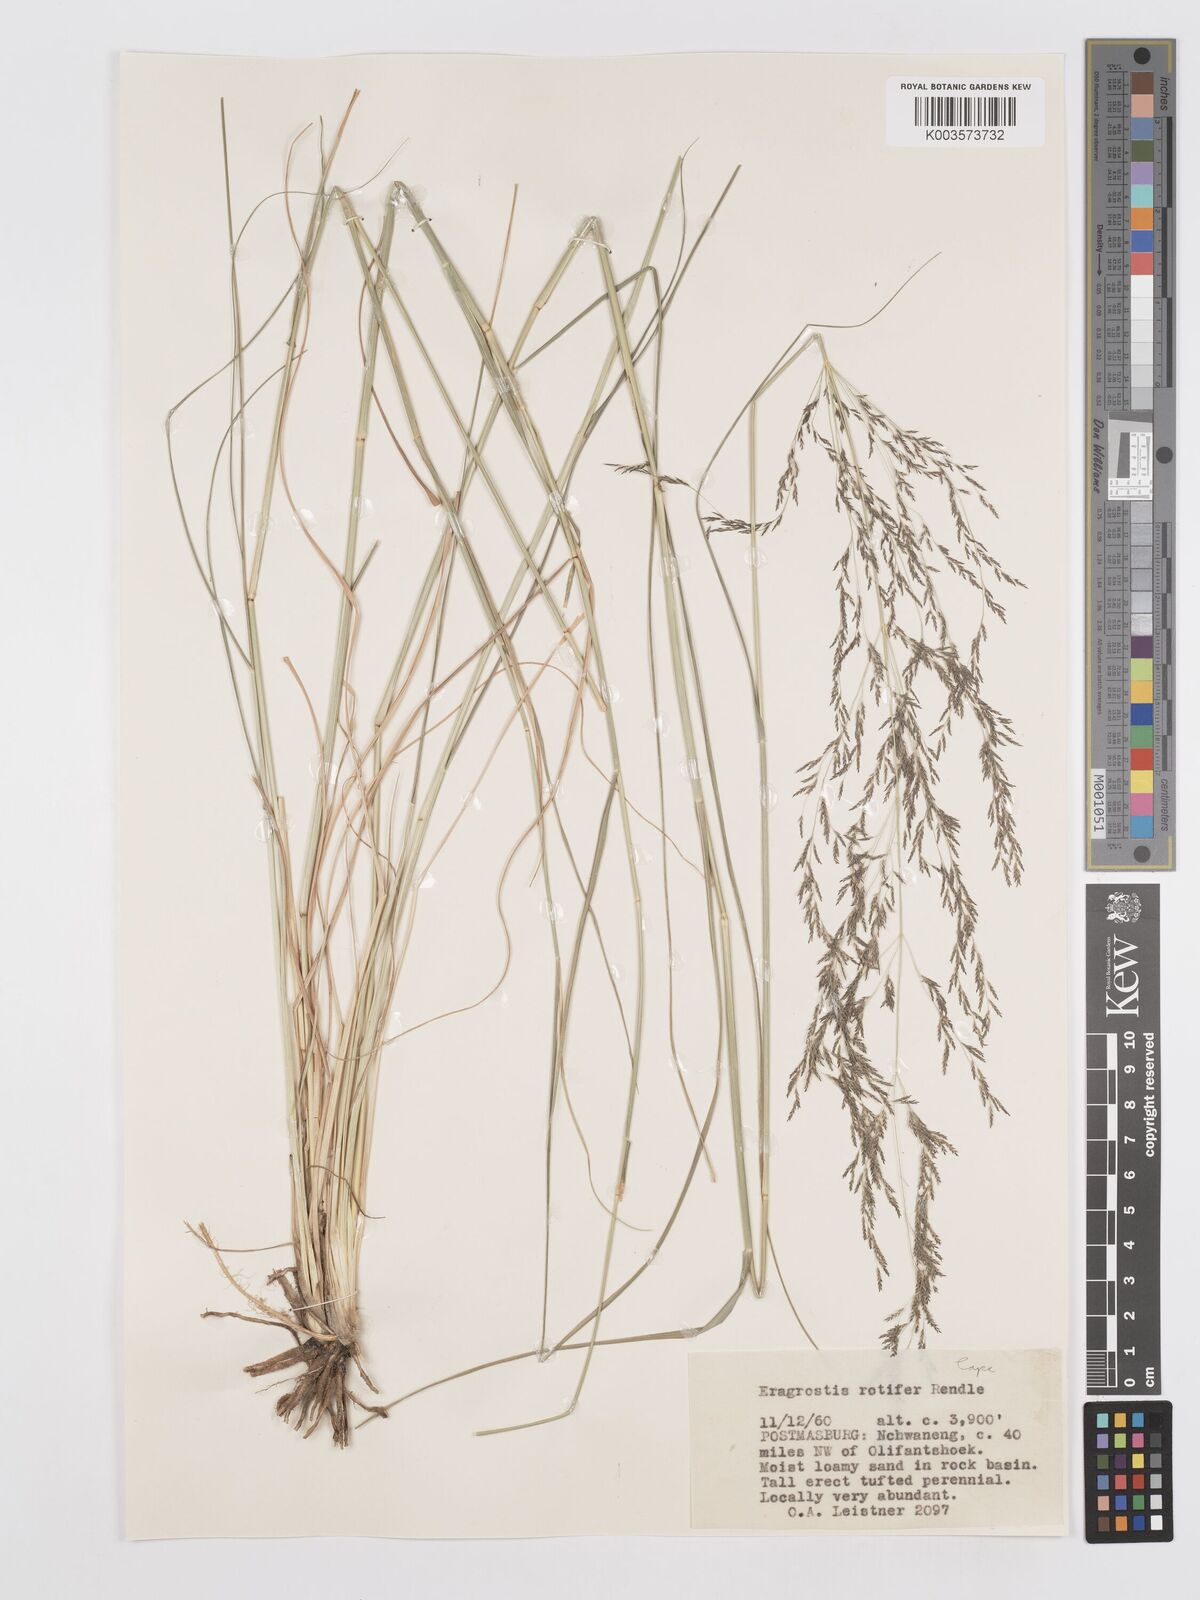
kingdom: Plantae
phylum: Tracheophyta
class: Liliopsida
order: Poales
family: Poaceae
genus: Eragrostis
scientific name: Eragrostis rotifer
